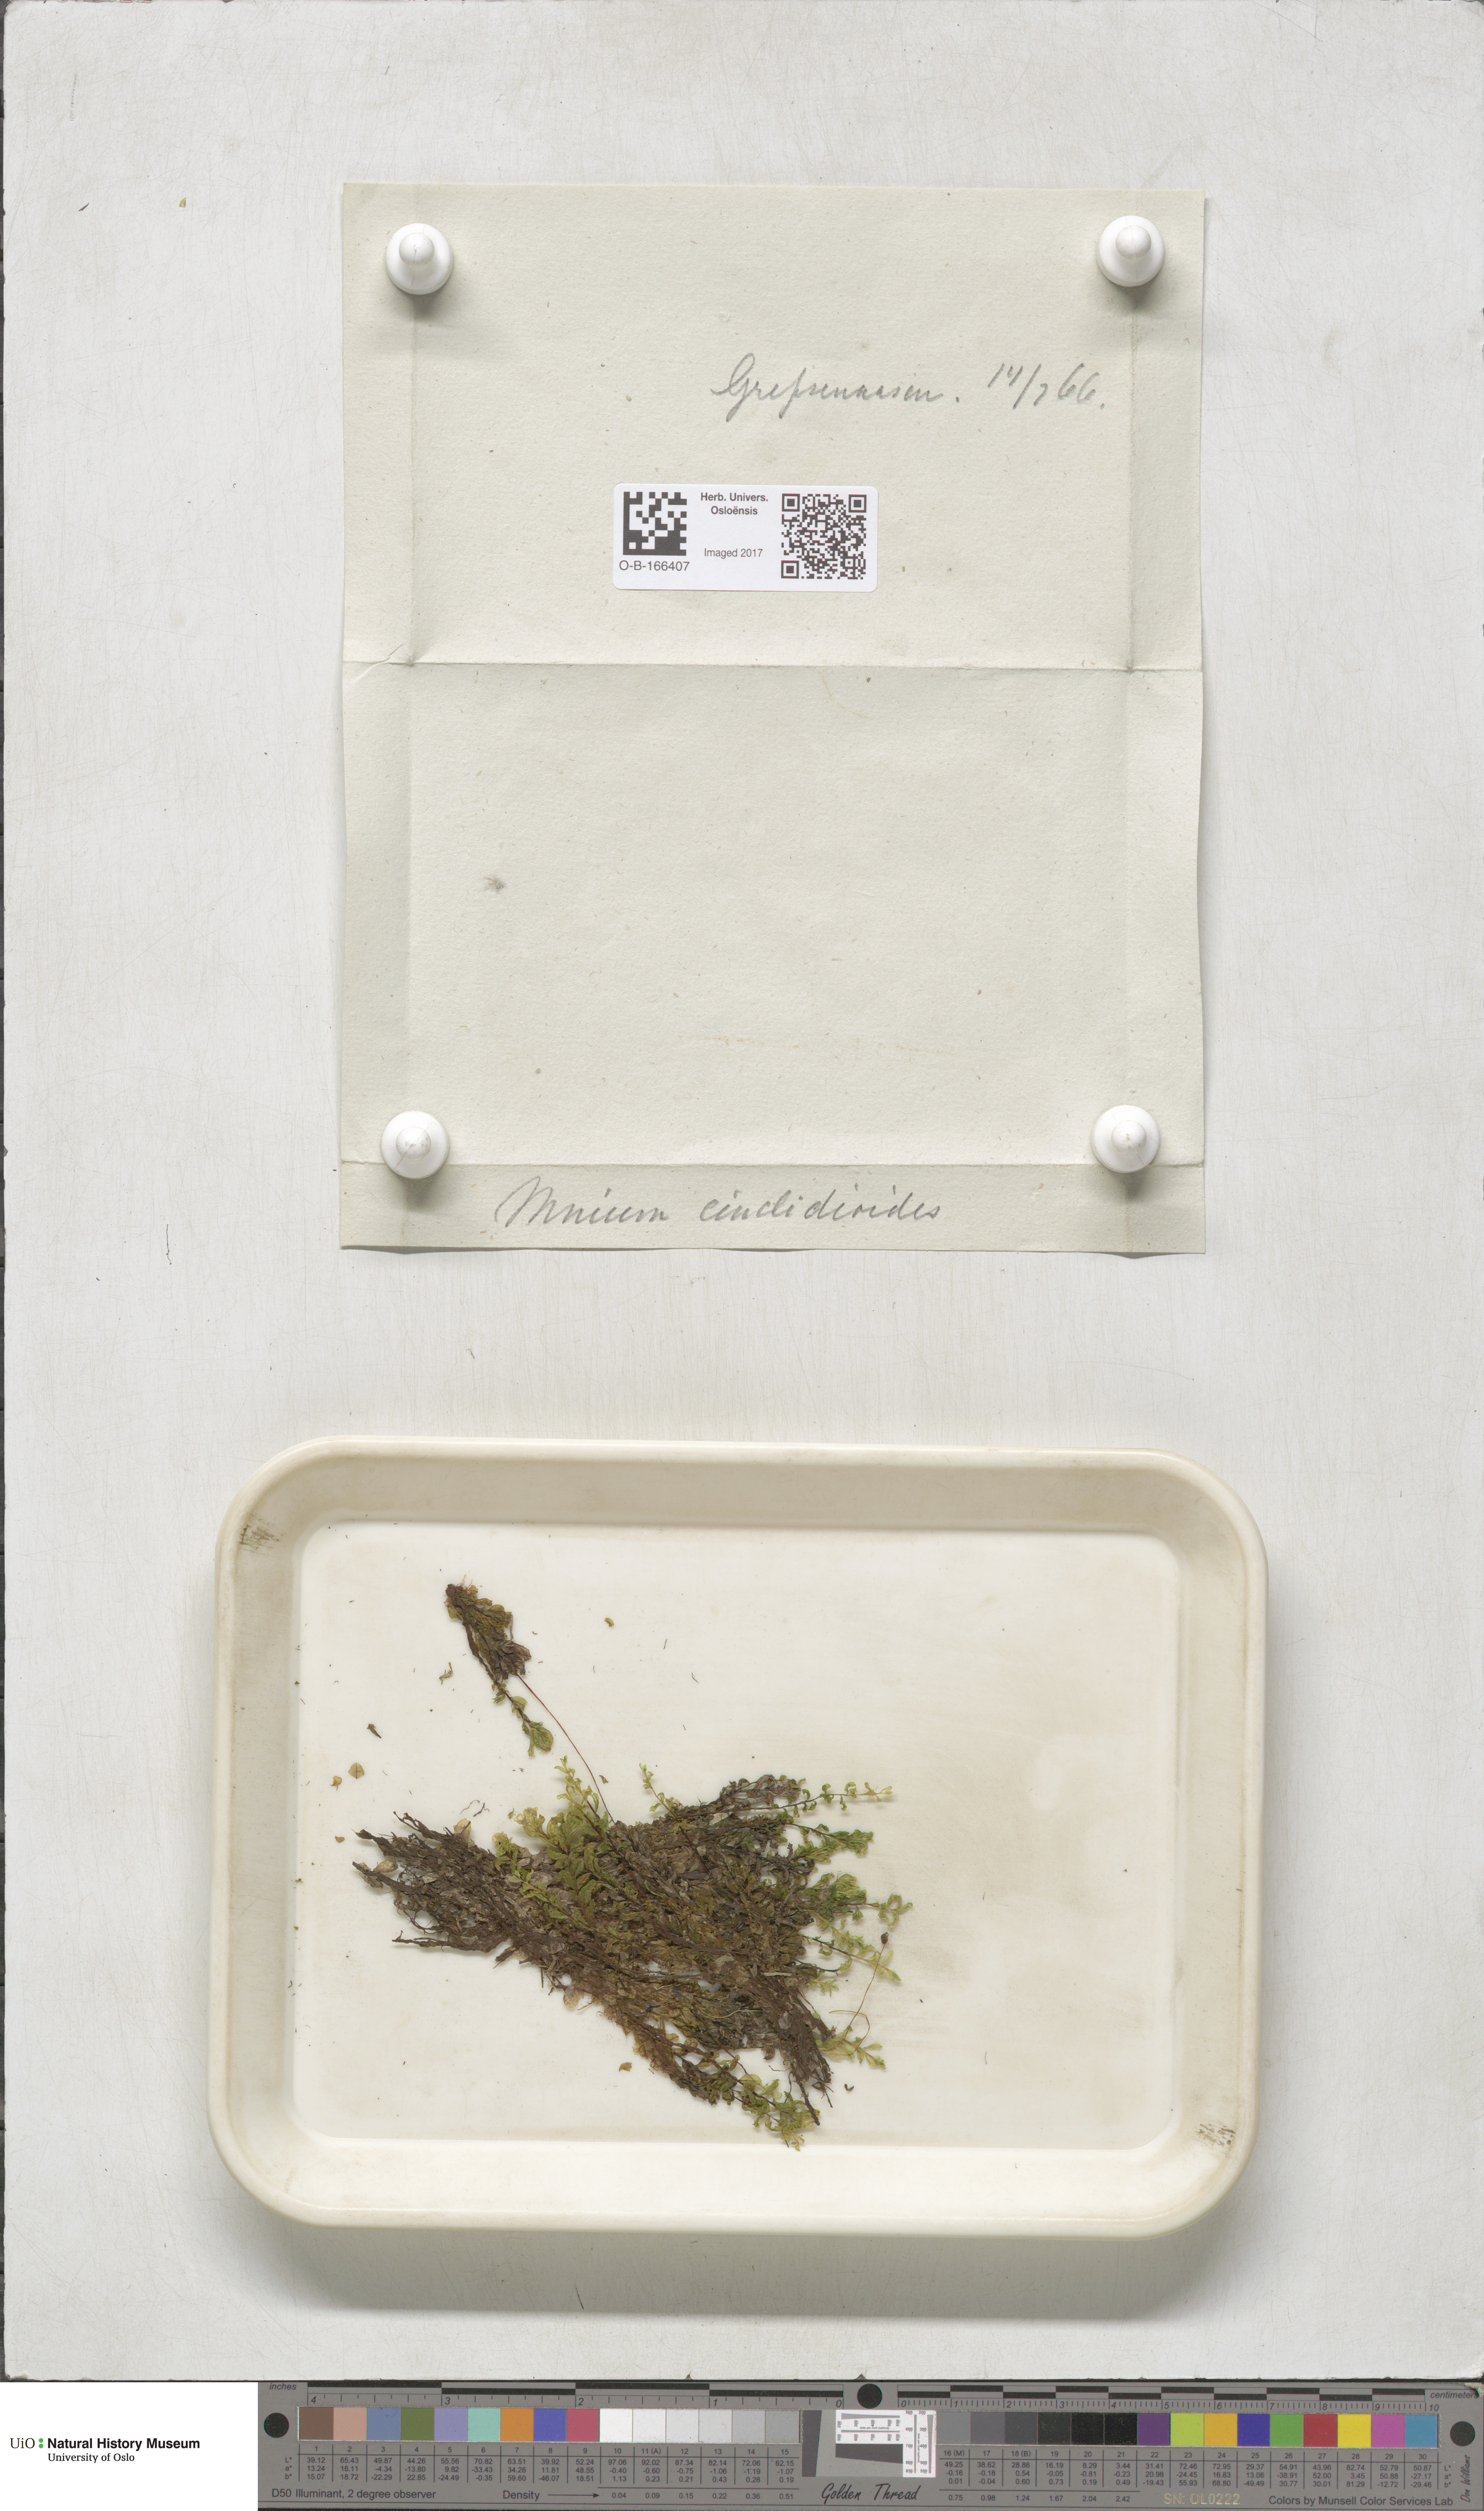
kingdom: Plantae
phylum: Bryophyta
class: Bryopsida
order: Bryales
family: Mniaceae
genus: Pseudobryum
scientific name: Pseudobryum cinclidioides
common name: River thyme moss
